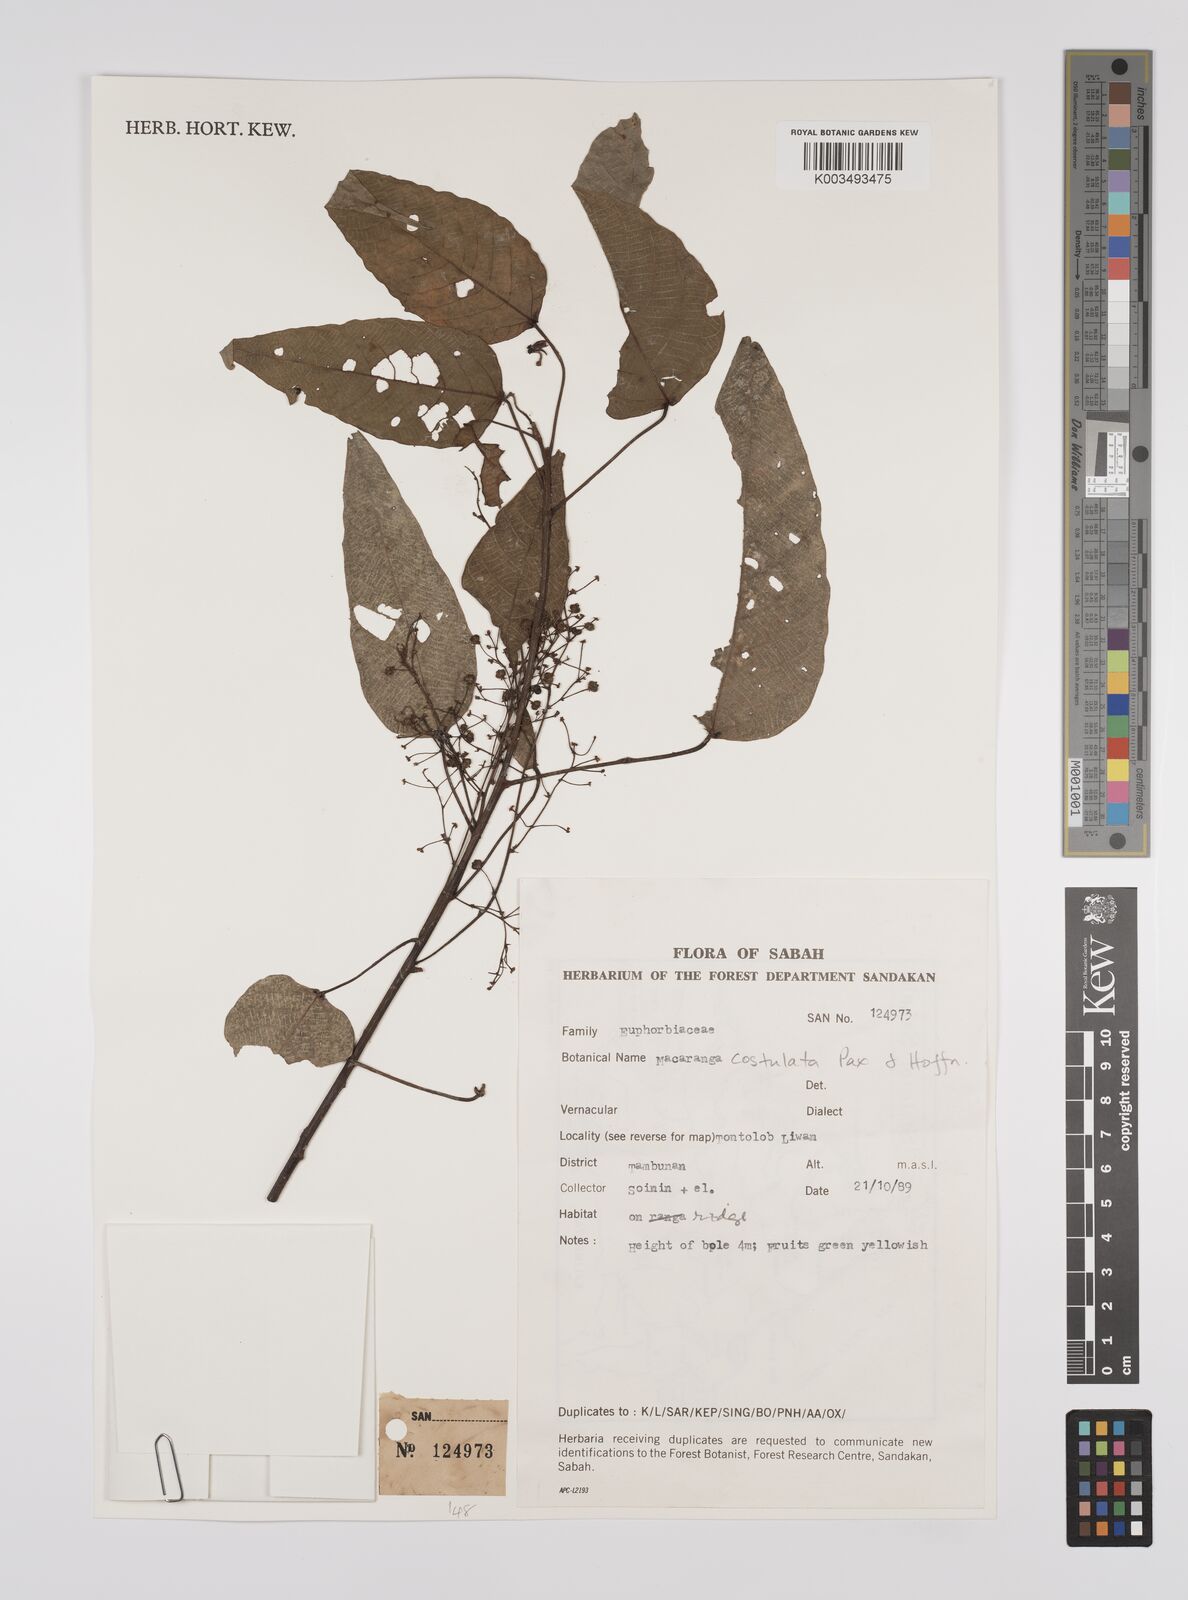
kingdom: Plantae
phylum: Tracheophyta
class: Magnoliopsida
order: Malpighiales
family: Euphorbiaceae
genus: Macaranga
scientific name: Macaranga costulata
